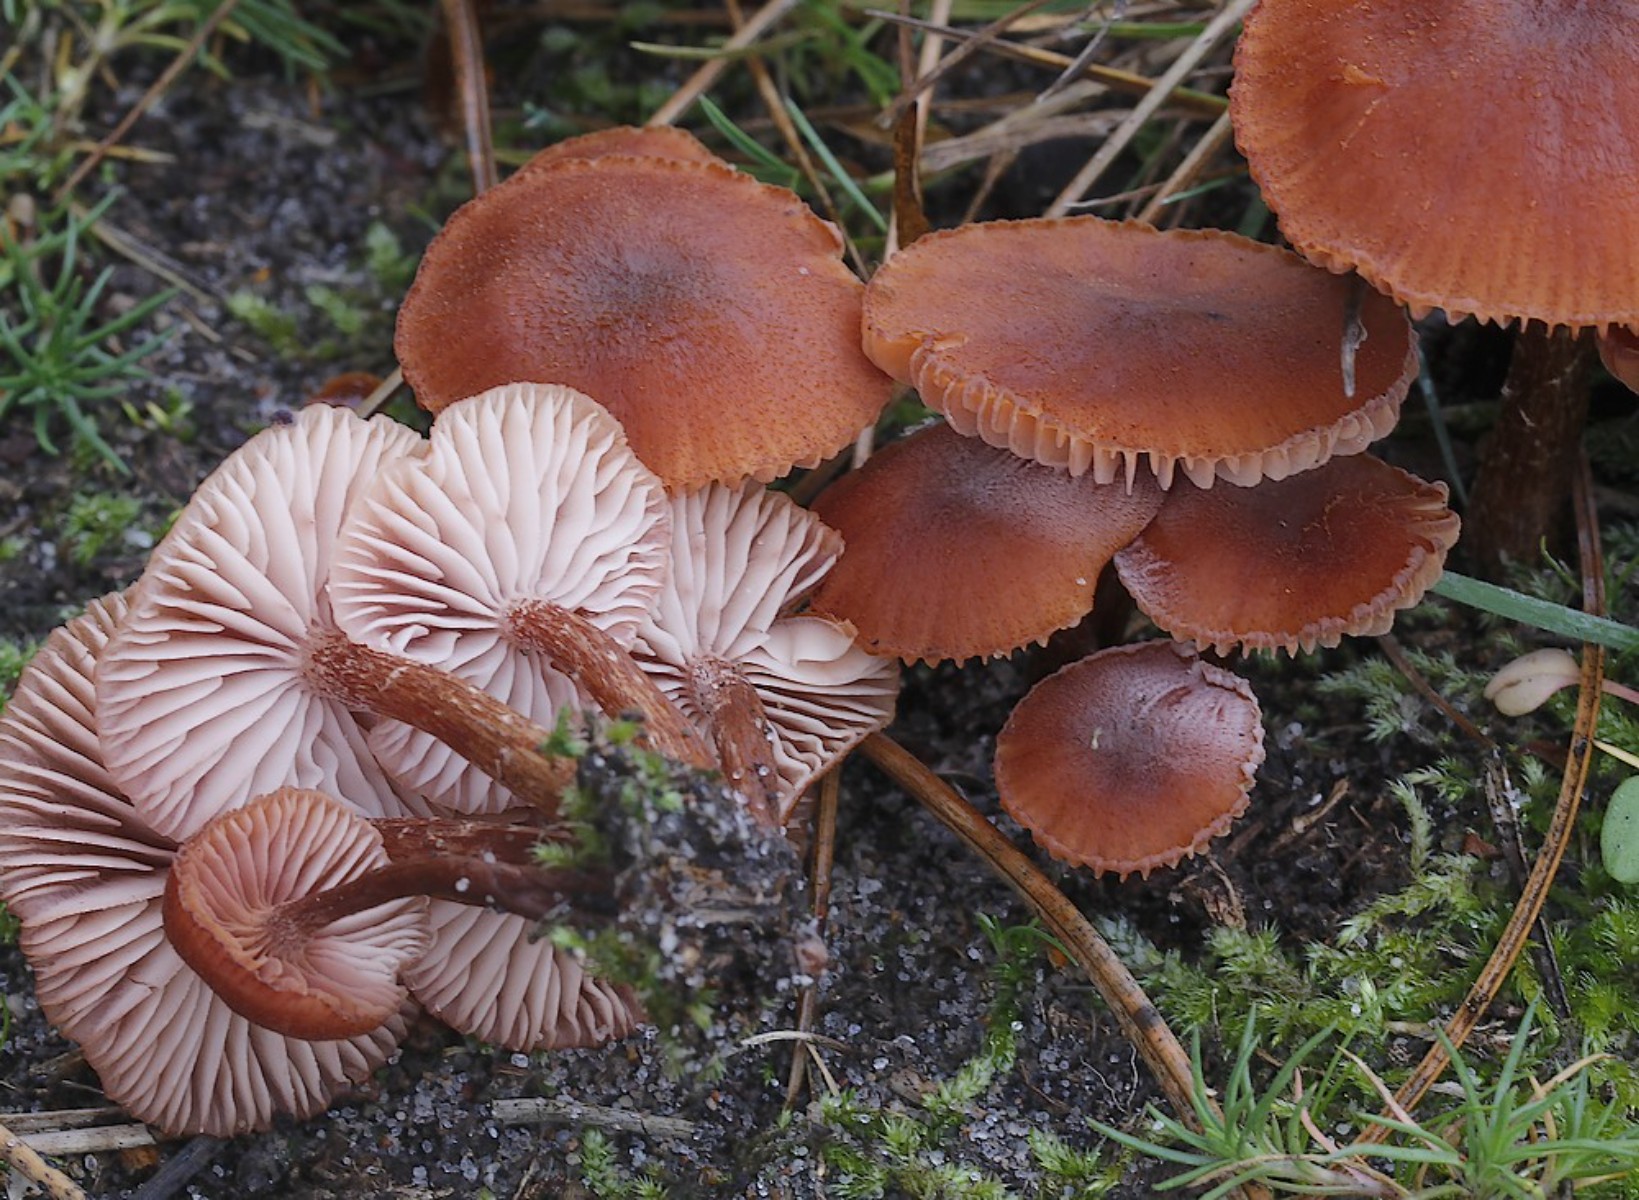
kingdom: Fungi
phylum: Basidiomycota
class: Agaricomycetes
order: Agaricales
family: Hydnangiaceae
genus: Laccaria
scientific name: Laccaria
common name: ametysthat
